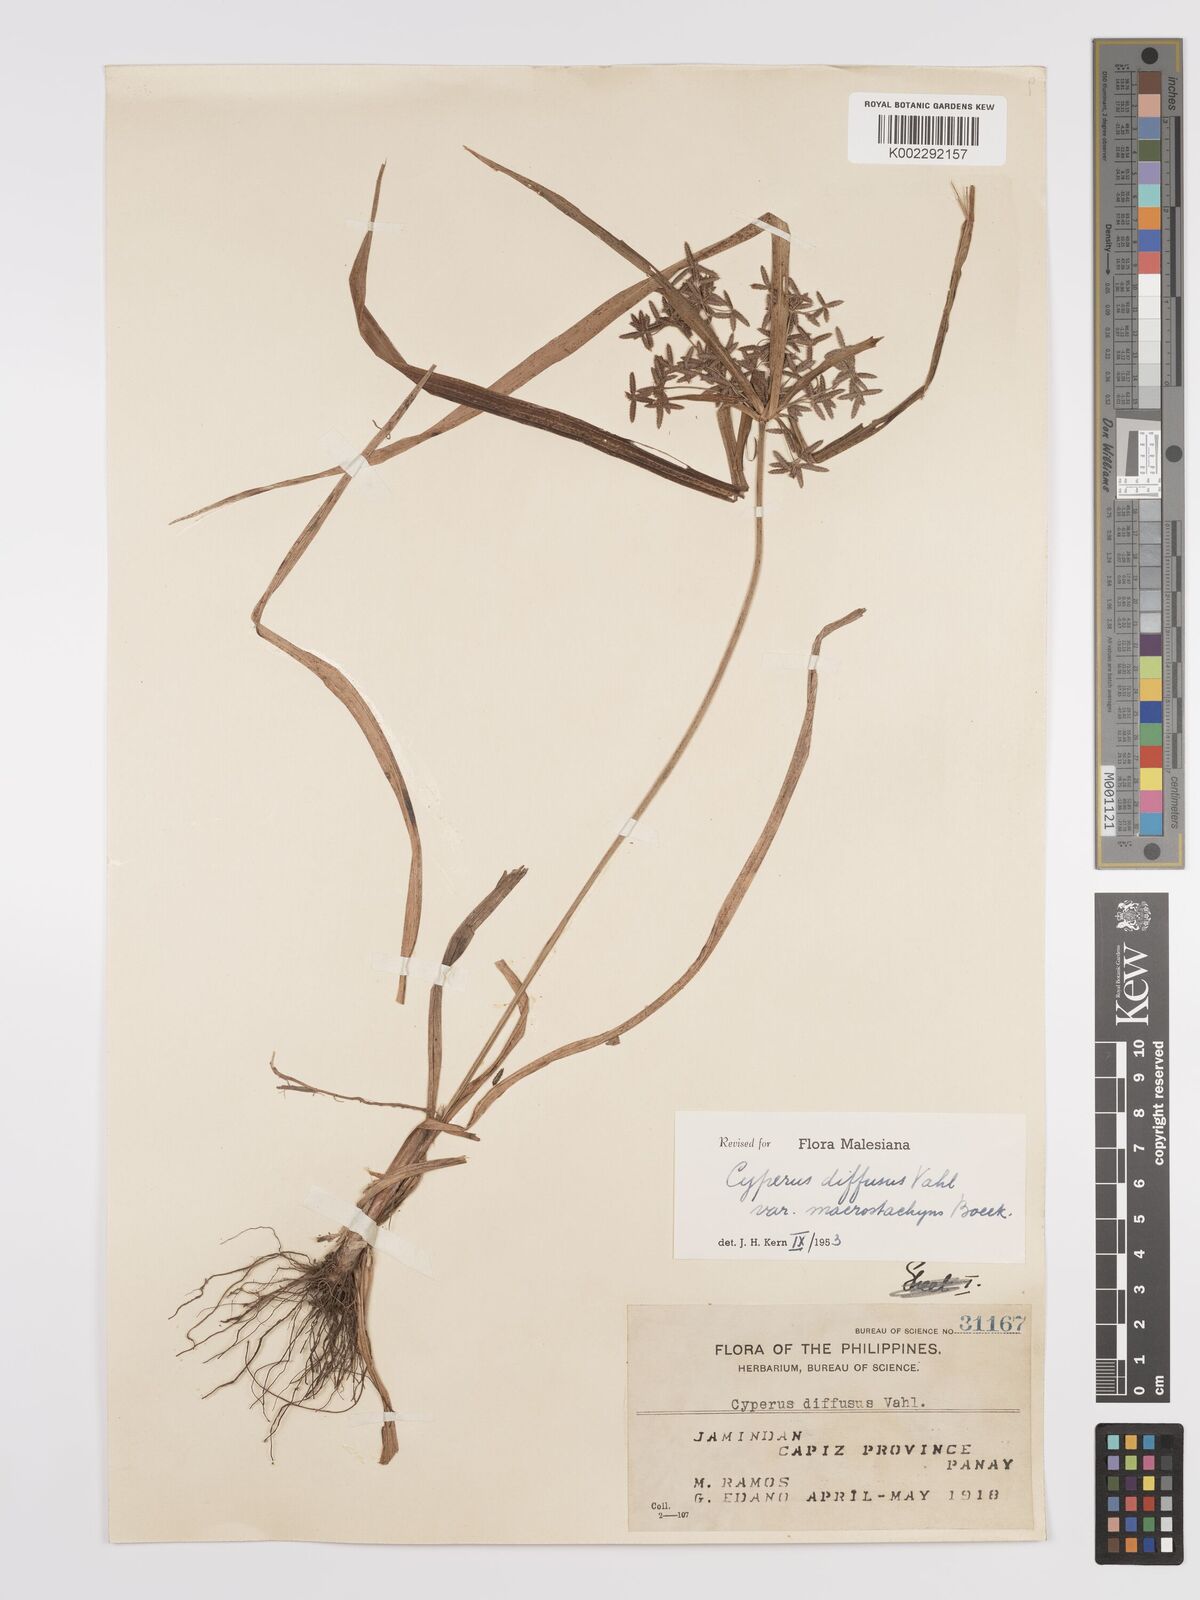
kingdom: Plantae
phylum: Tracheophyta
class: Liliopsida
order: Poales
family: Cyperaceae
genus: Cyperus
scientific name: Cyperus diffusus
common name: Dwarf umbrella grass
